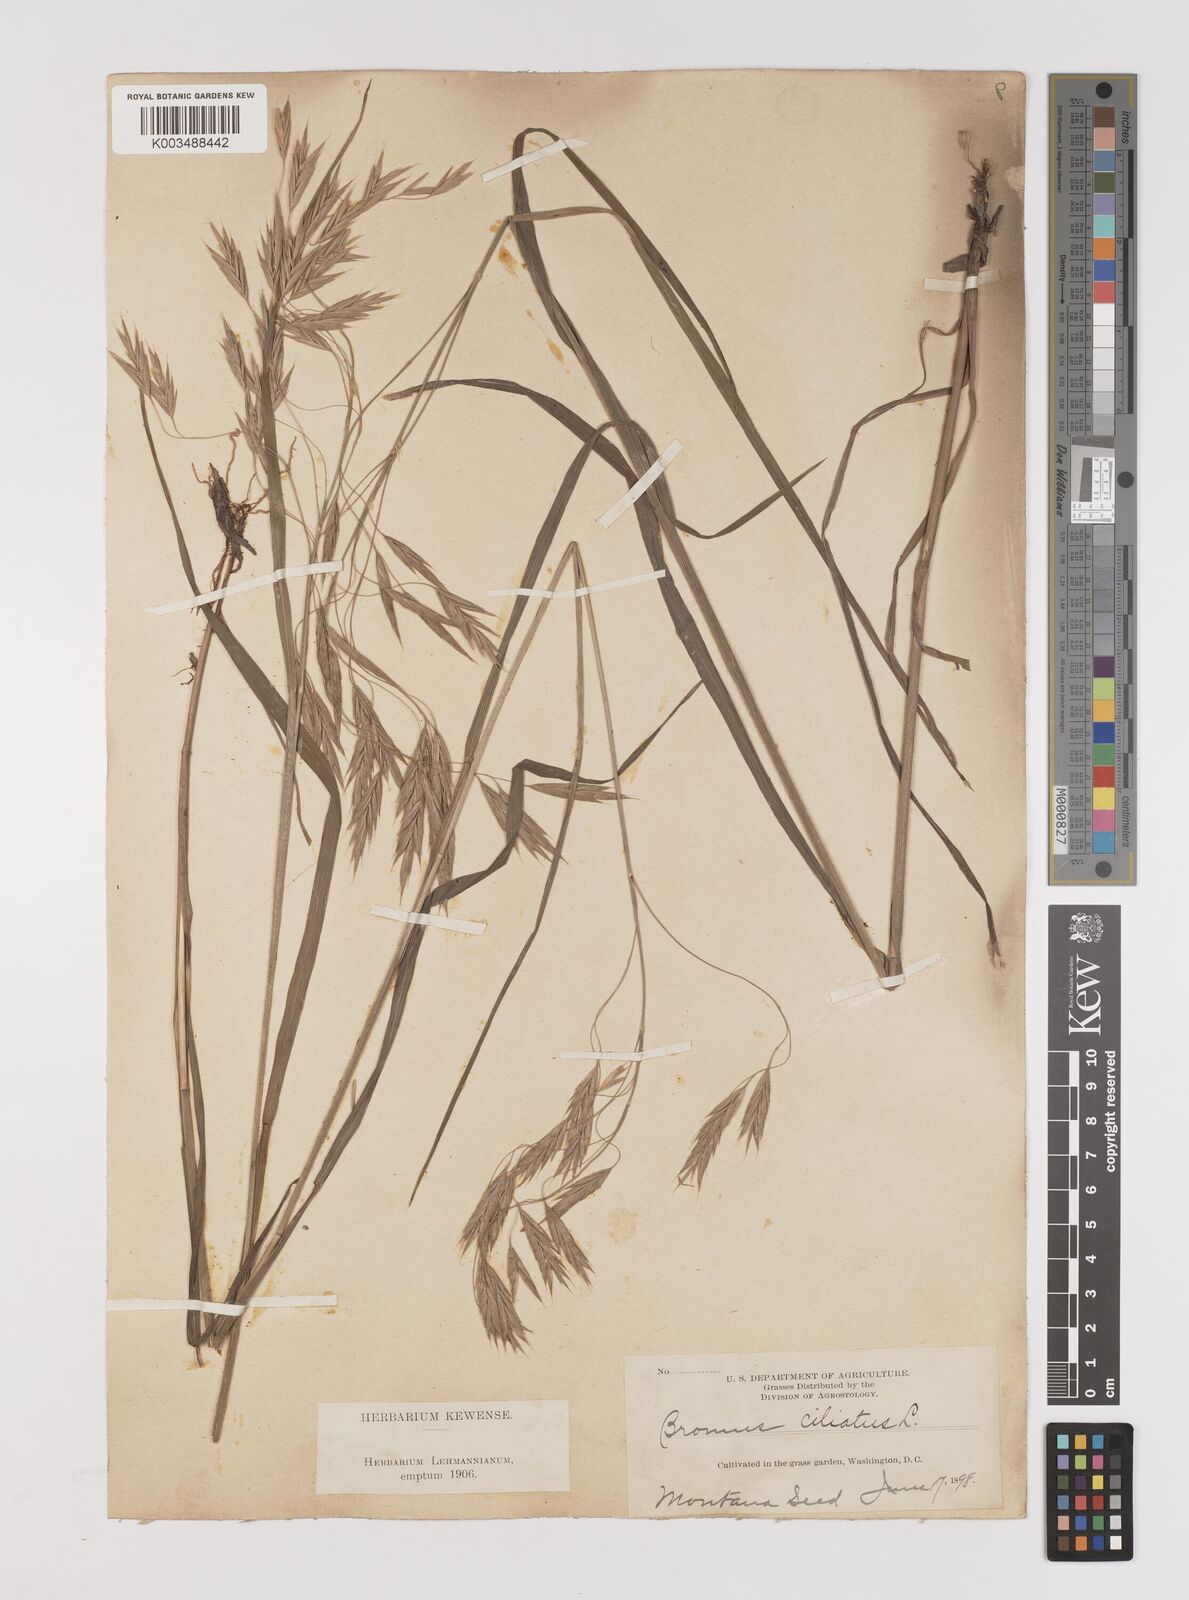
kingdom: Plantae
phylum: Tracheophyta
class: Liliopsida
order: Poales
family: Poaceae
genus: Bromus
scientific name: Bromus ciliatus
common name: Fringe brome
